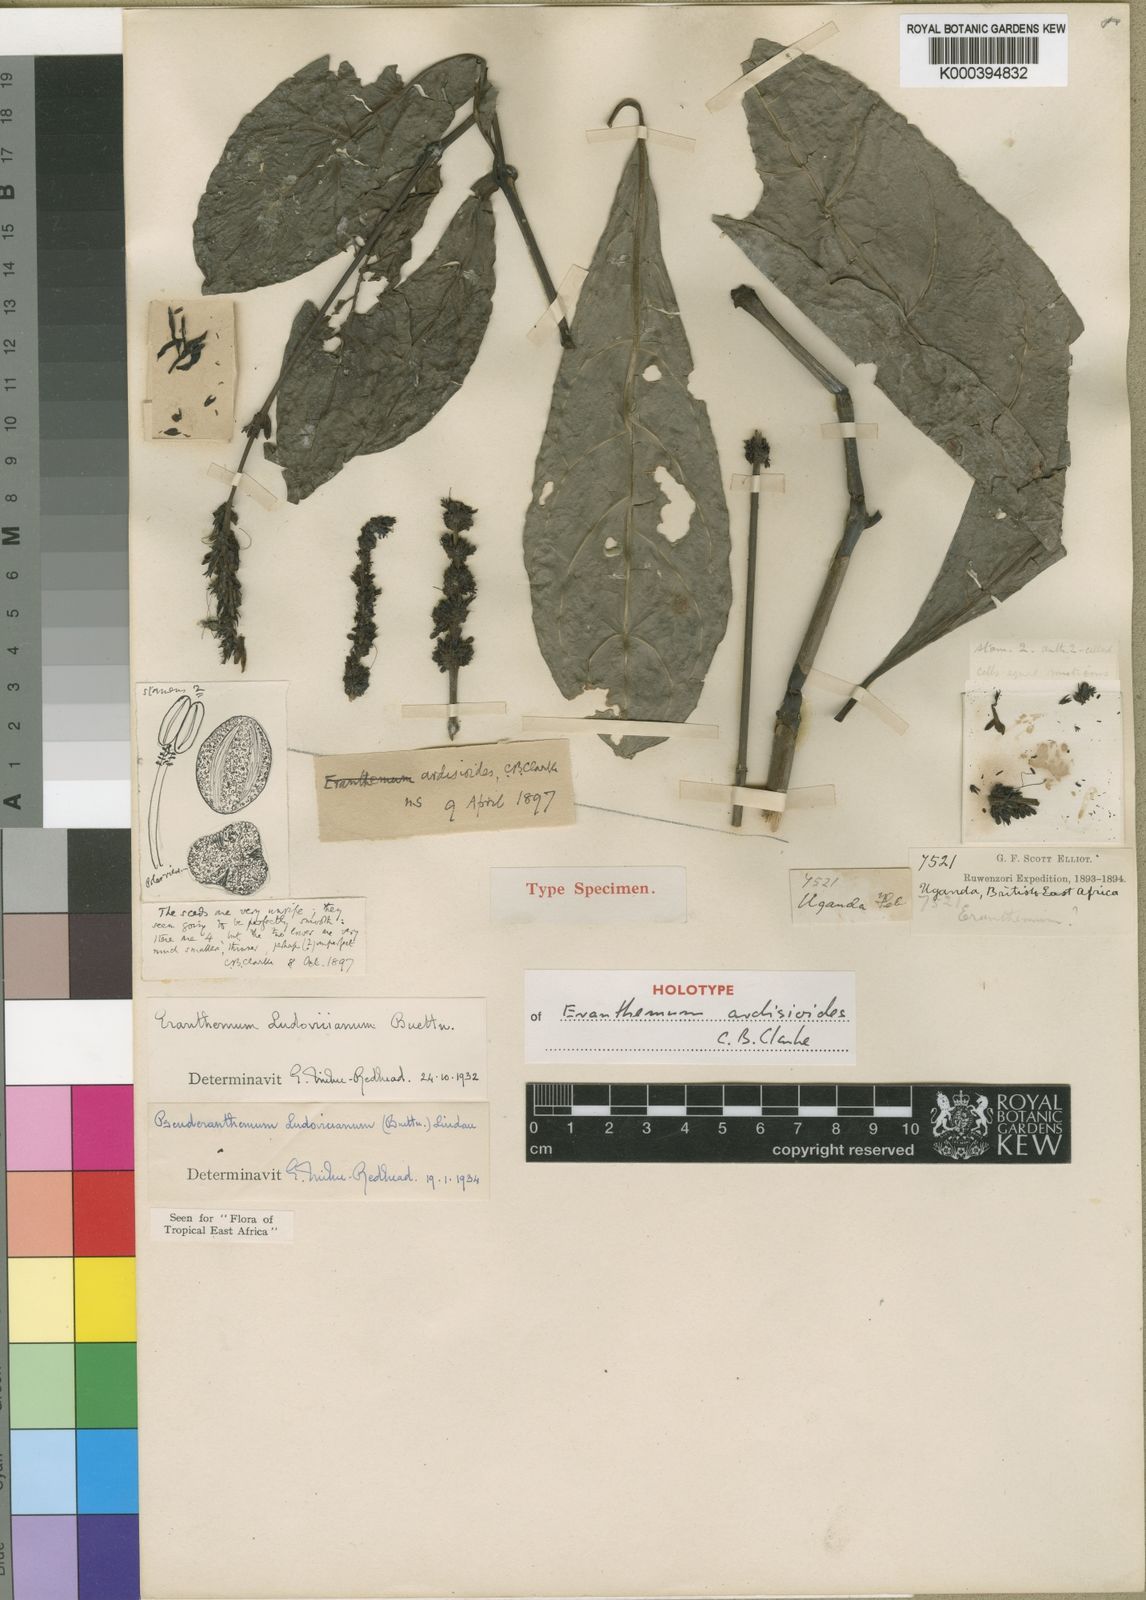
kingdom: Plantae
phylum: Tracheophyta
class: Magnoliopsida
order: Lamiales
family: Acanthaceae
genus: Pseuderanthemum
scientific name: Pseuderanthemum
